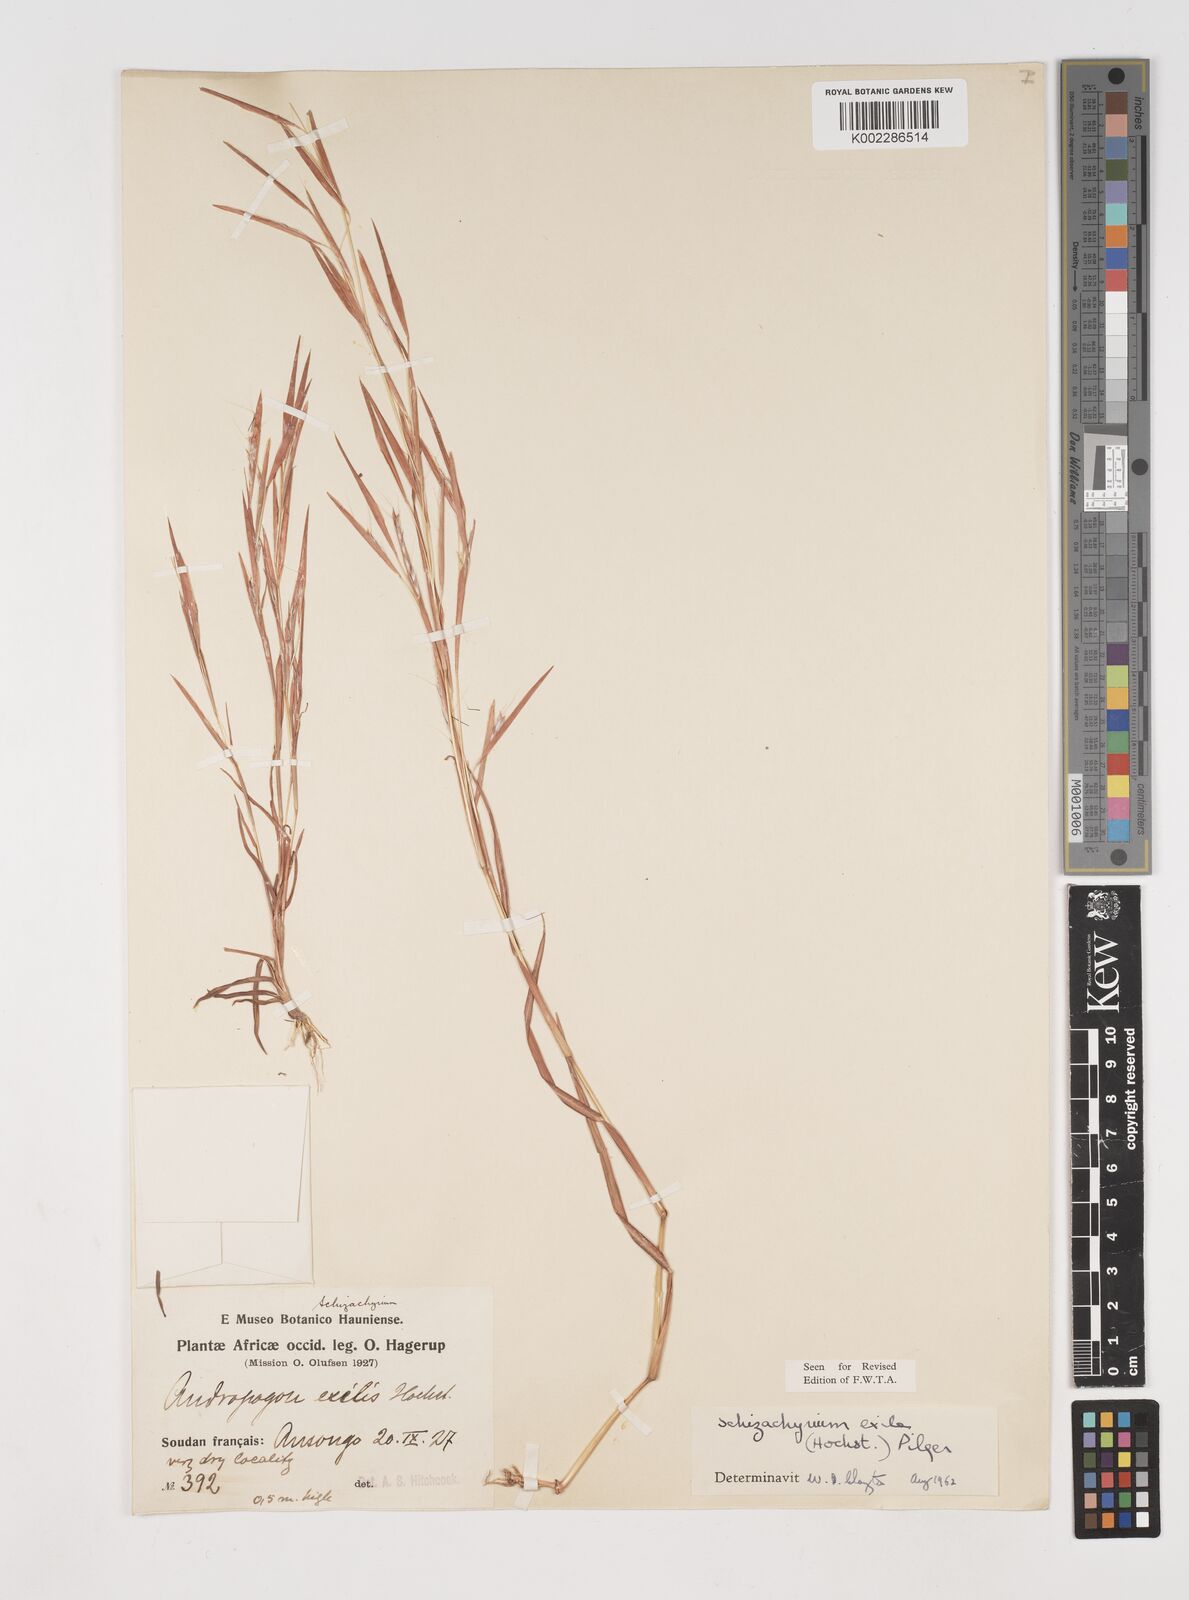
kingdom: Plantae
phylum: Tracheophyta
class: Liliopsida
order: Poales
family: Poaceae
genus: Schizachyrium
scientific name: Schizachyrium exile
